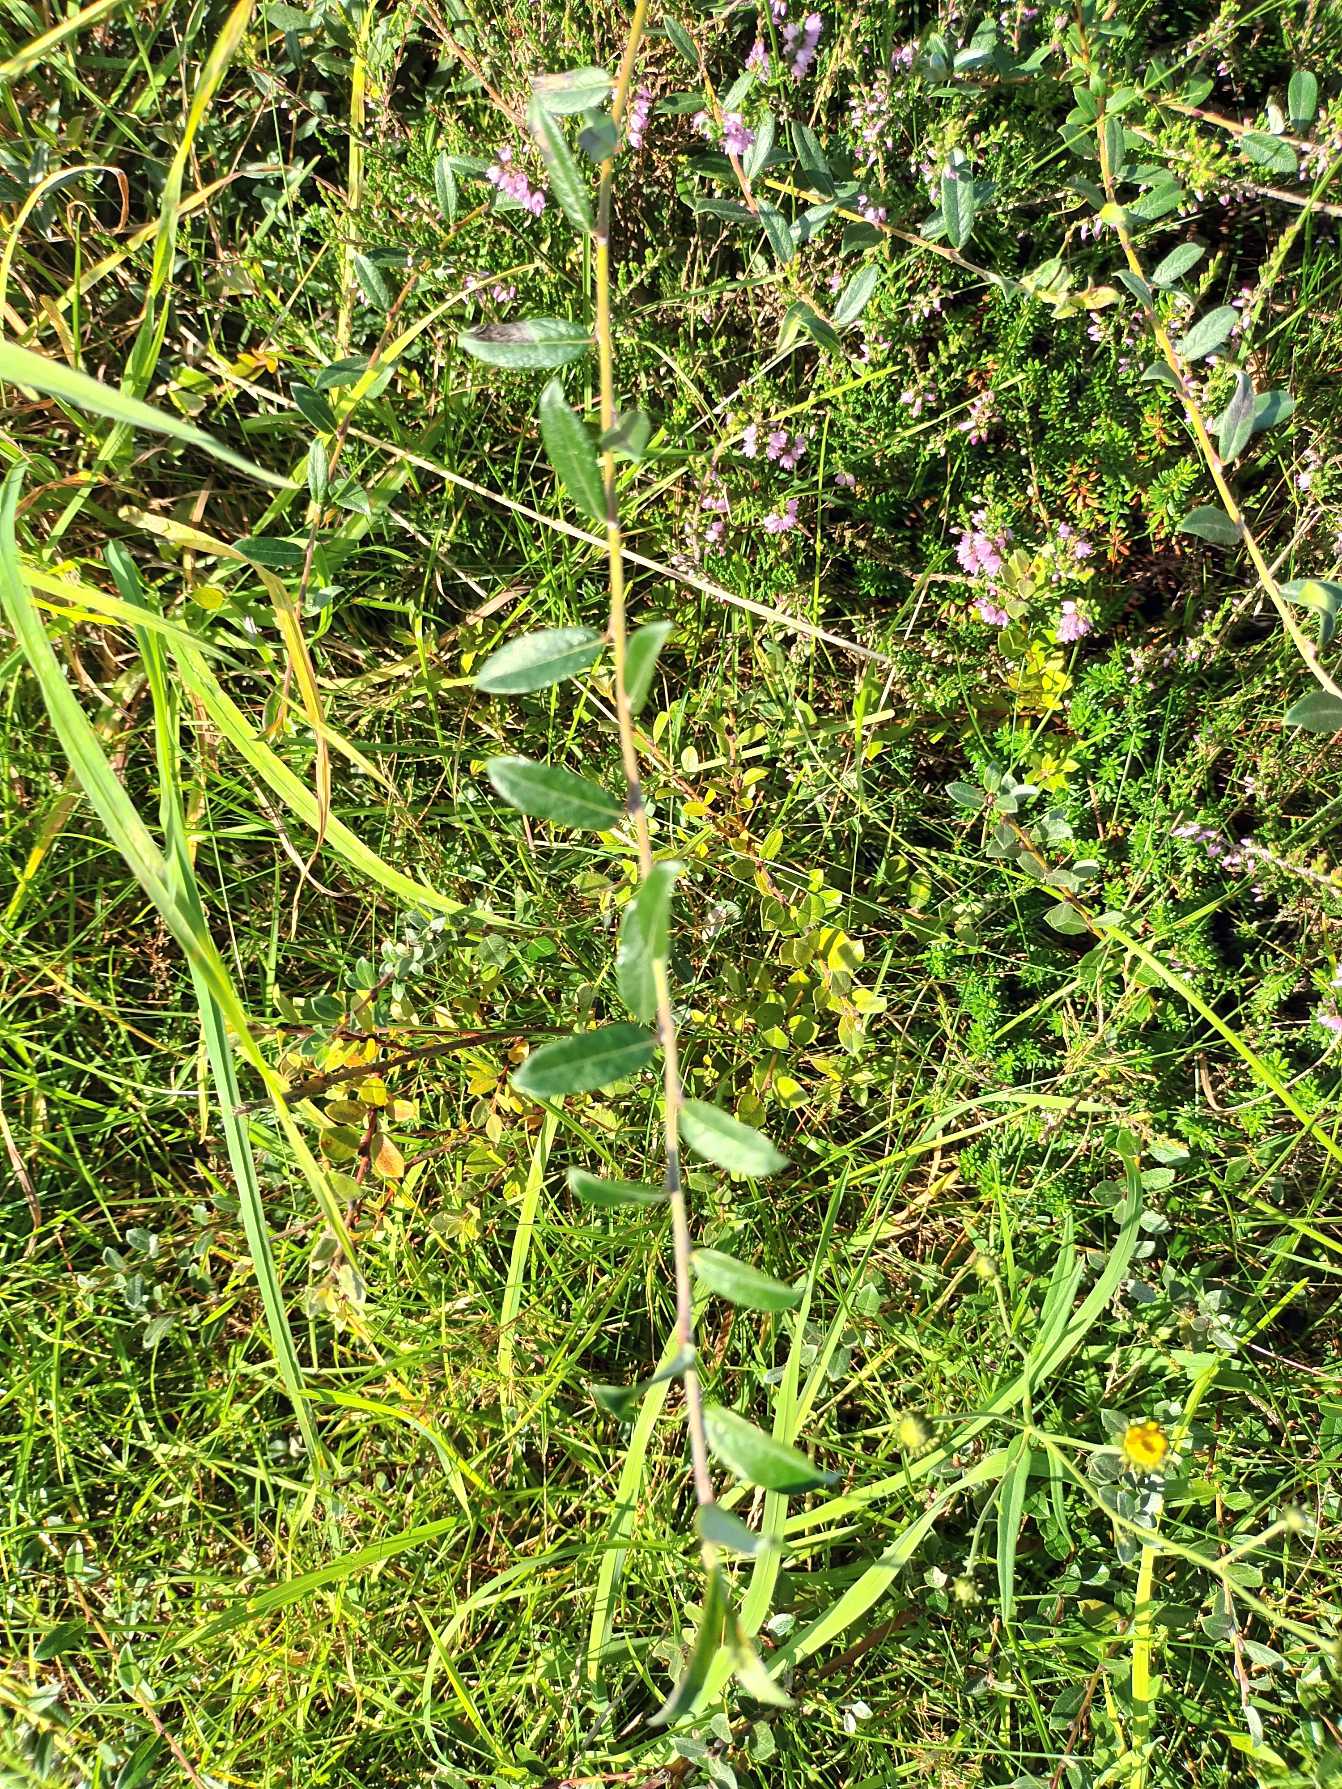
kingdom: Plantae
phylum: Tracheophyta
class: Magnoliopsida
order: Malpighiales
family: Salicaceae
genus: Salix
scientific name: Salix repens
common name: Krybende pil
